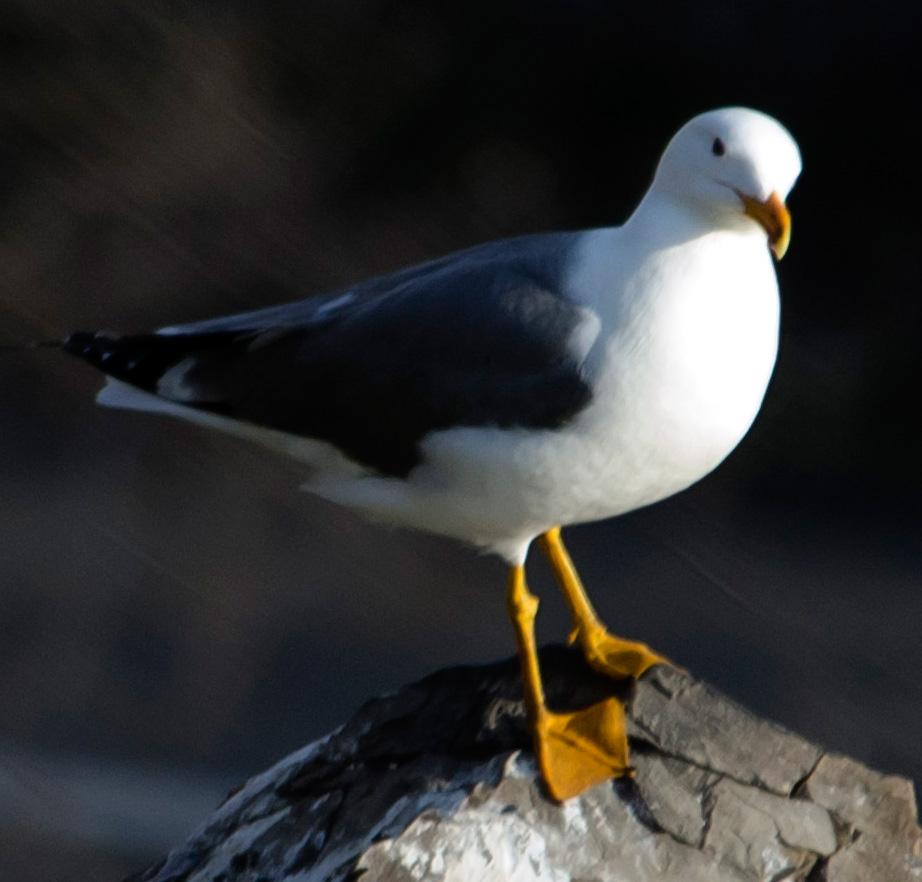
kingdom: Animalia
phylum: Chordata
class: Aves
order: Charadriiformes
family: Laridae
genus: Larus
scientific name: Larus armenicus
